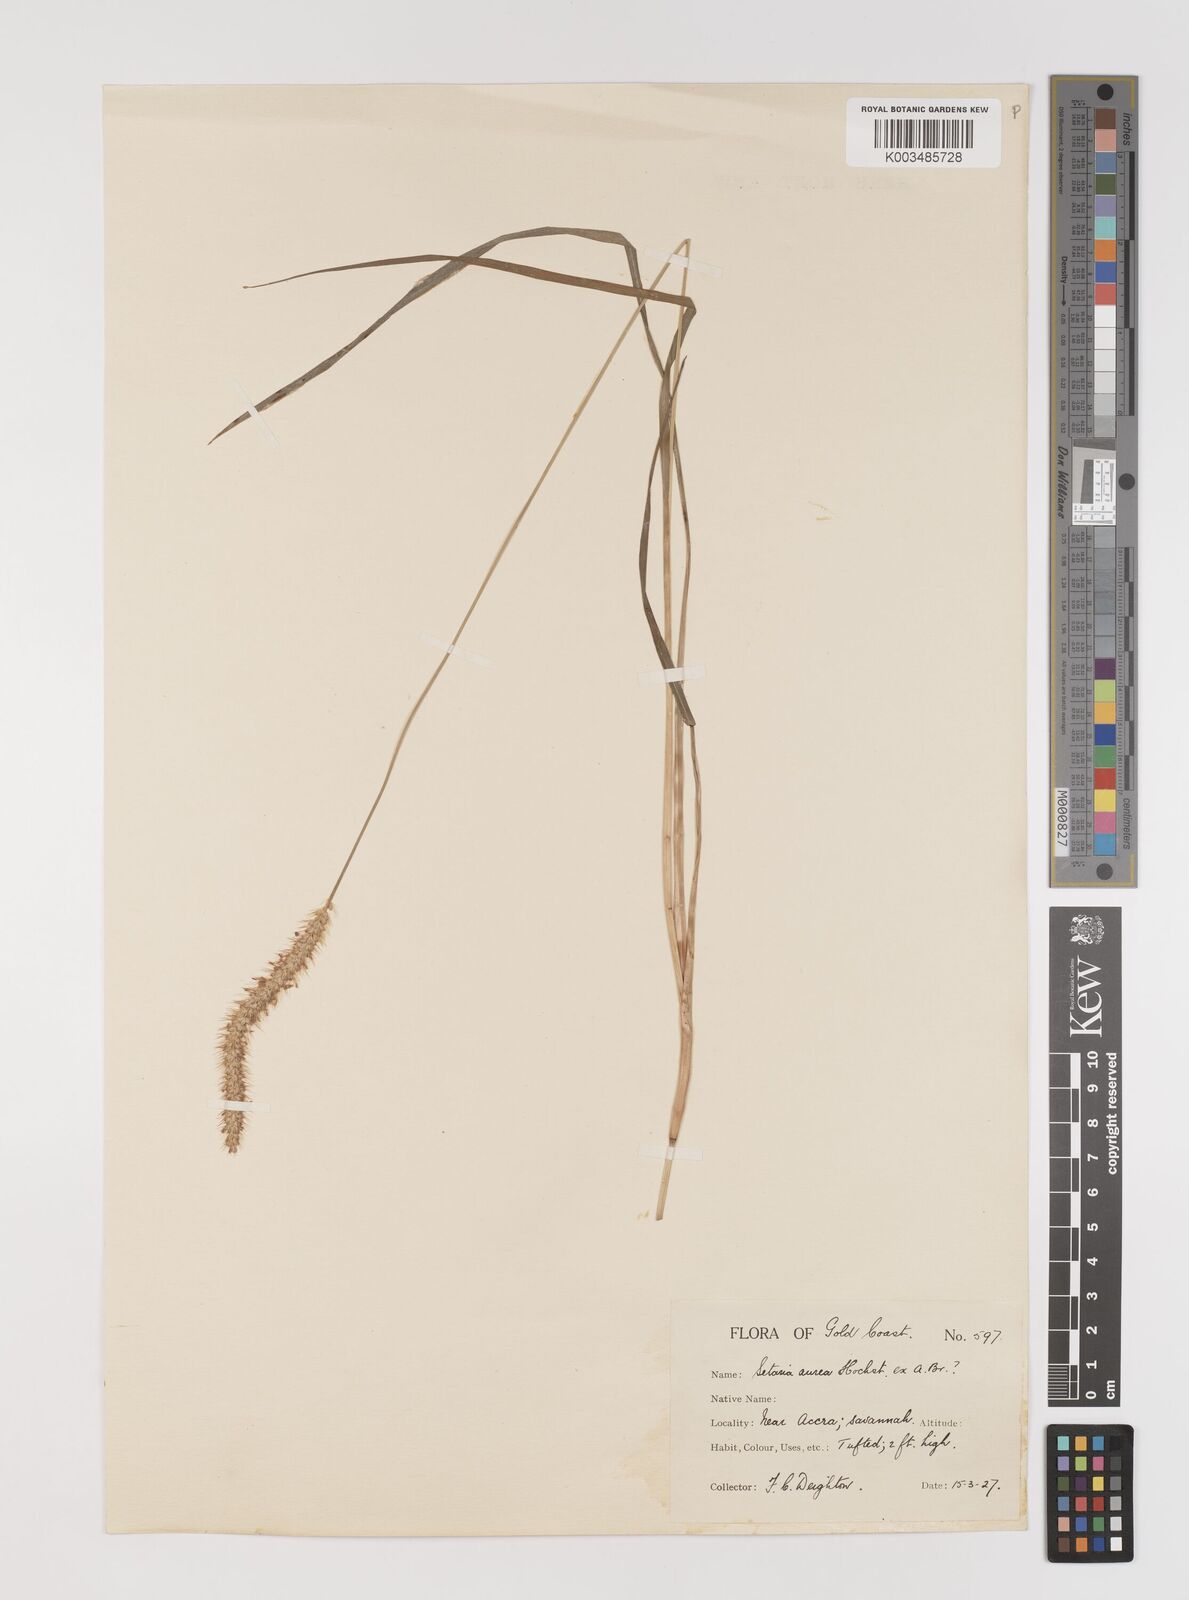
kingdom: Plantae
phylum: Tracheophyta
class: Liliopsida
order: Poales
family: Poaceae
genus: Setaria
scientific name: Setaria sphacelata
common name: African bristlegrass
